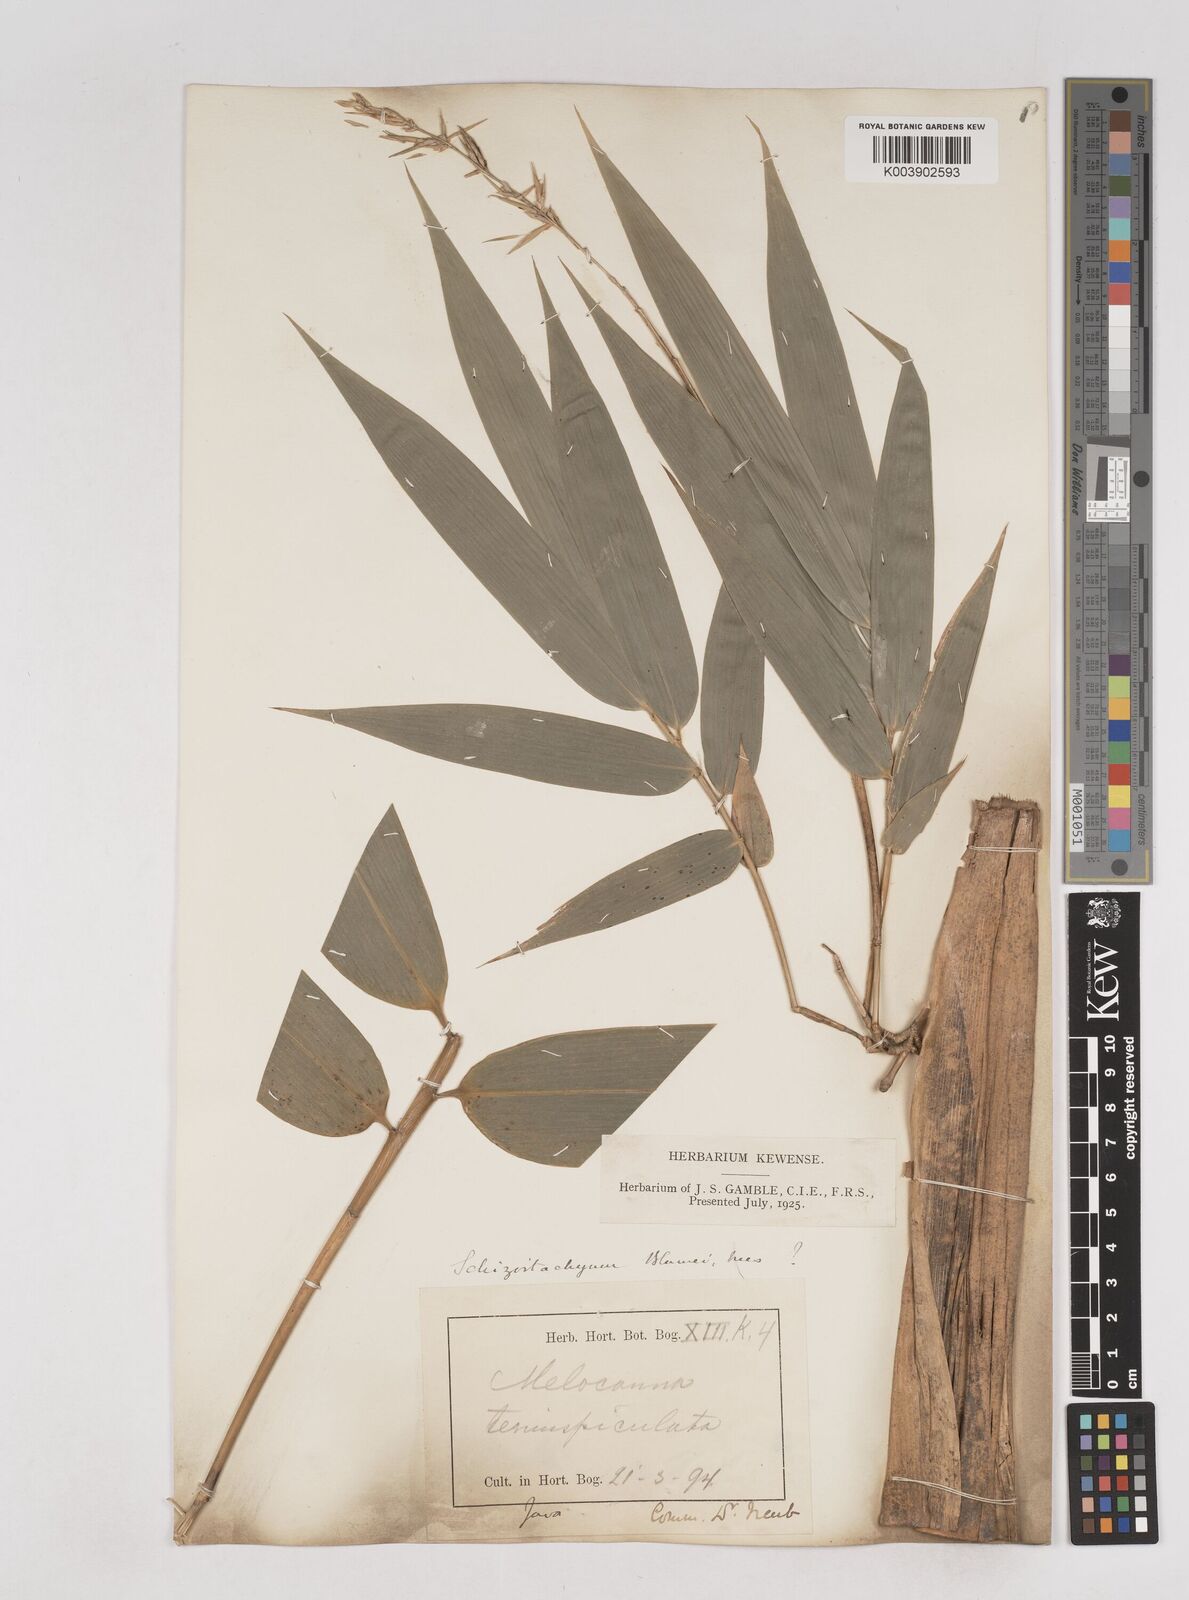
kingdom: Plantae
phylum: Tracheophyta
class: Liliopsida
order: Poales
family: Poaceae
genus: Schizostachyum
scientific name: Schizostachyum blumei
